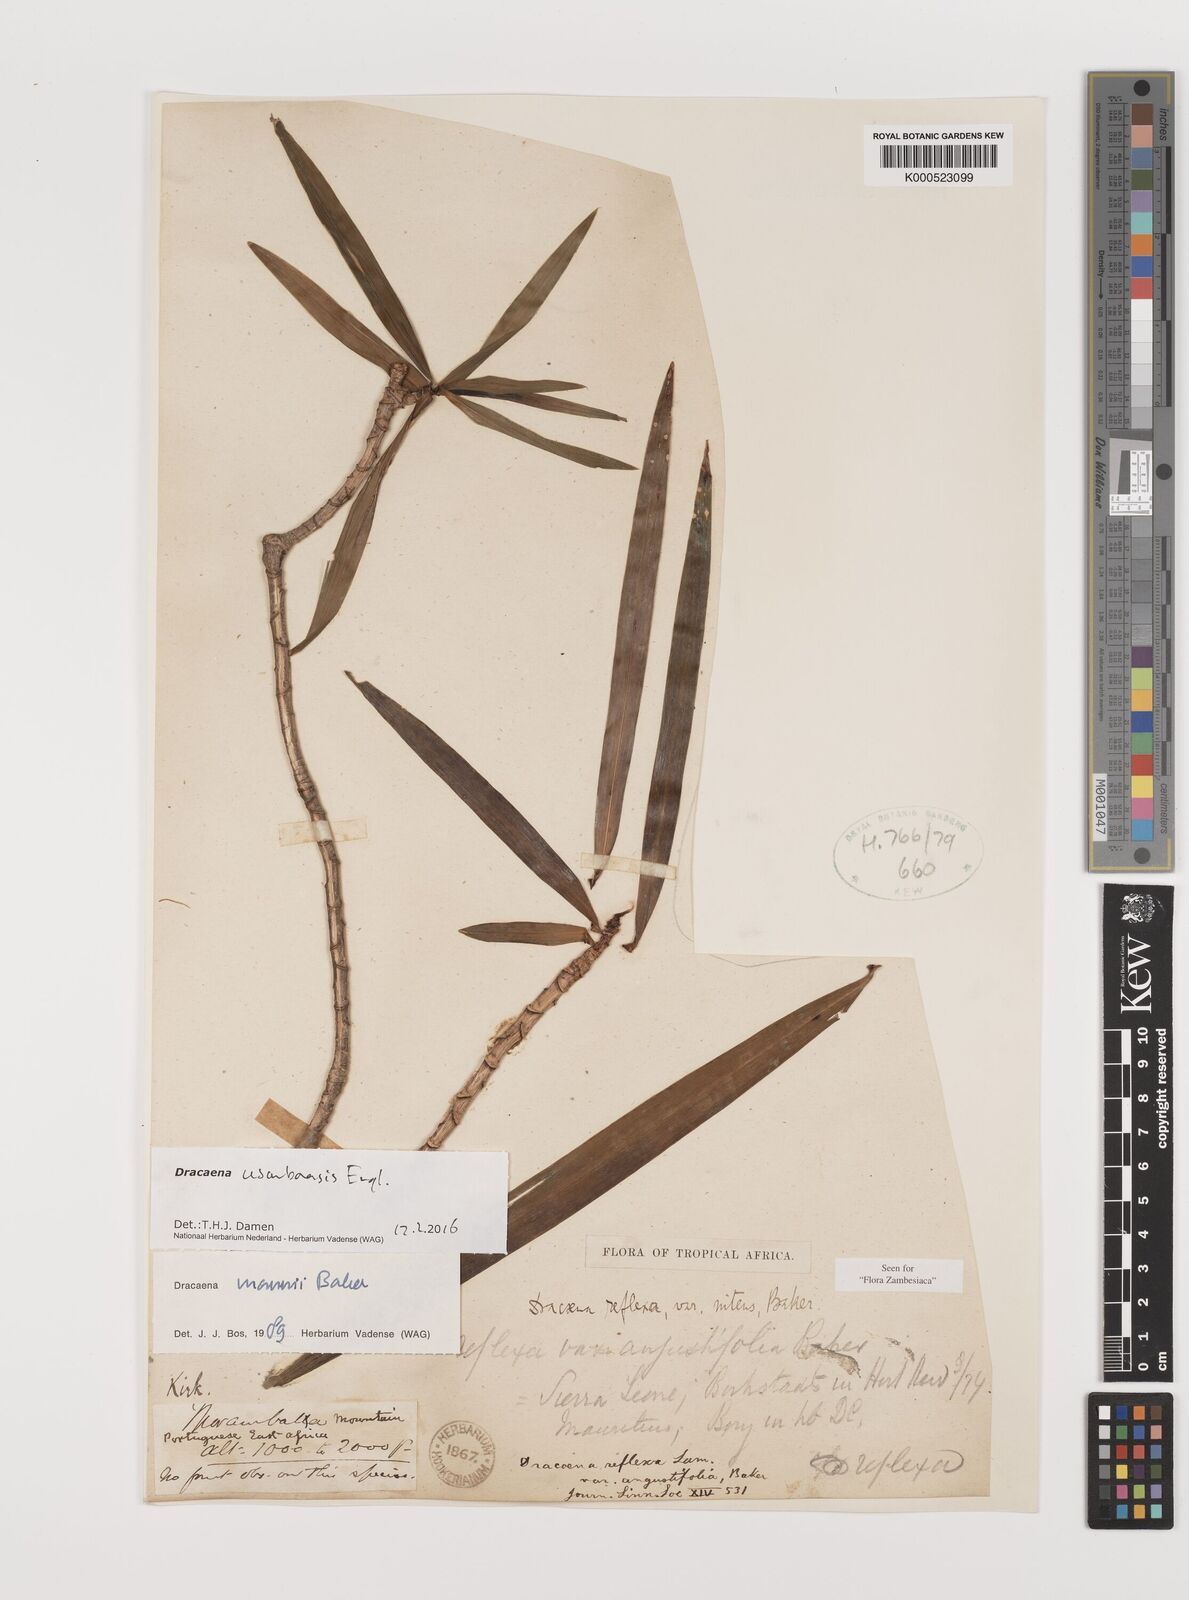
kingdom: Plantae
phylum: Tracheophyta
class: Liliopsida
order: Asparagales
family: Asparagaceae
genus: Dracaena
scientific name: Dracaena usambarensis
